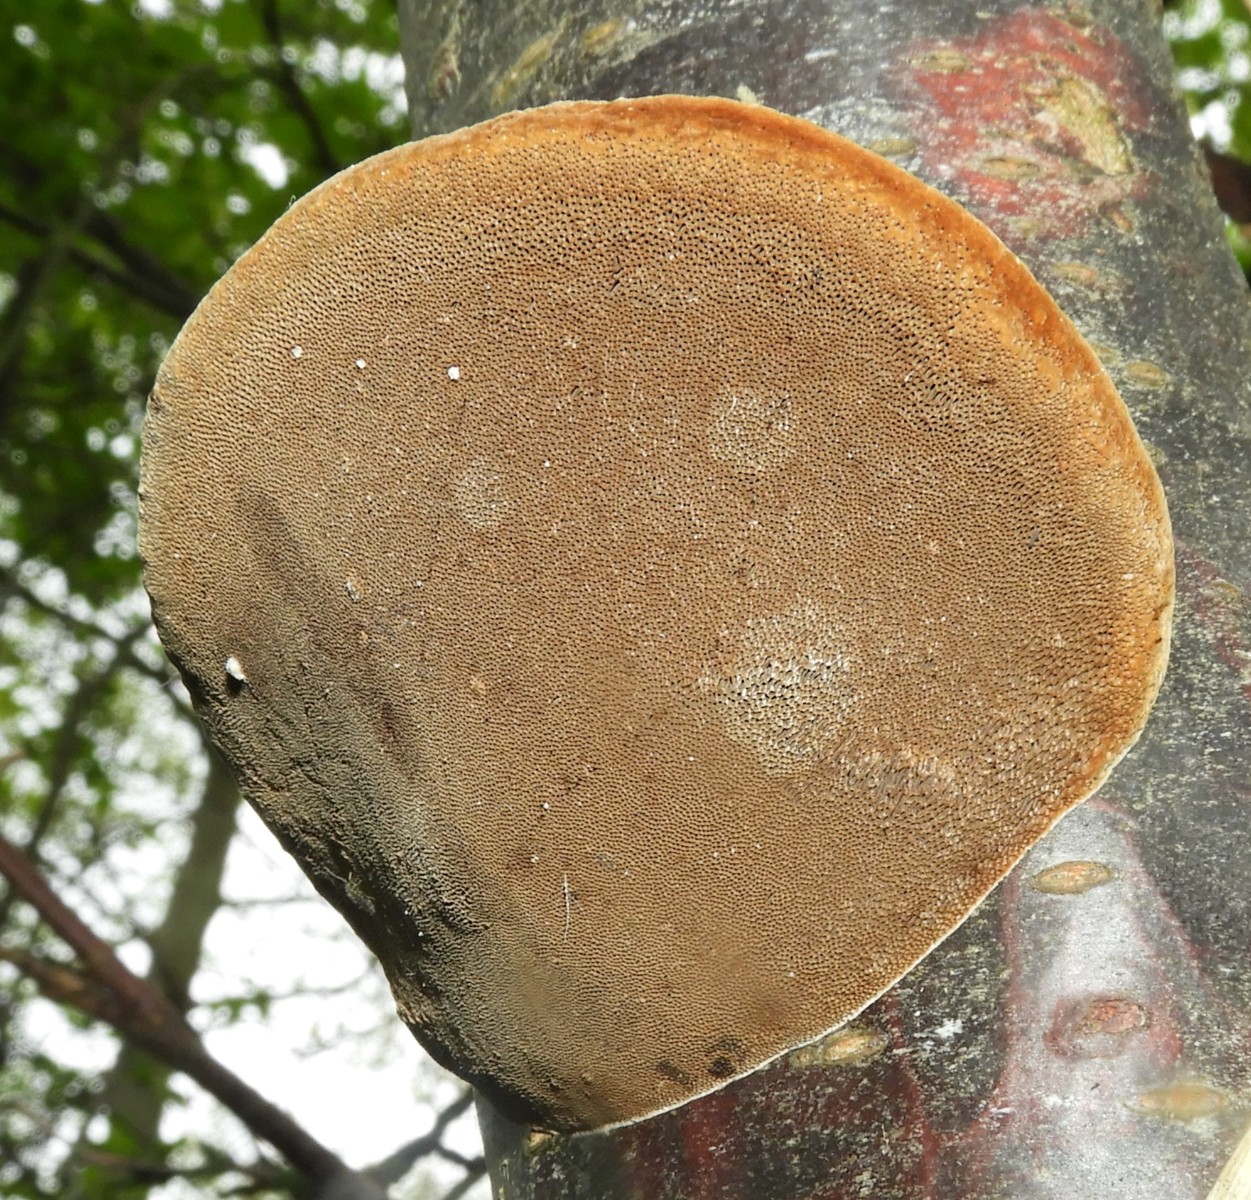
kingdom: Fungi
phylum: Basidiomycota
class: Agaricomycetes
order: Hymenochaetales
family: Hymenochaetaceae
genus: Phellinus
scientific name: Phellinus pomaceus
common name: blomme-ildporesvamp
